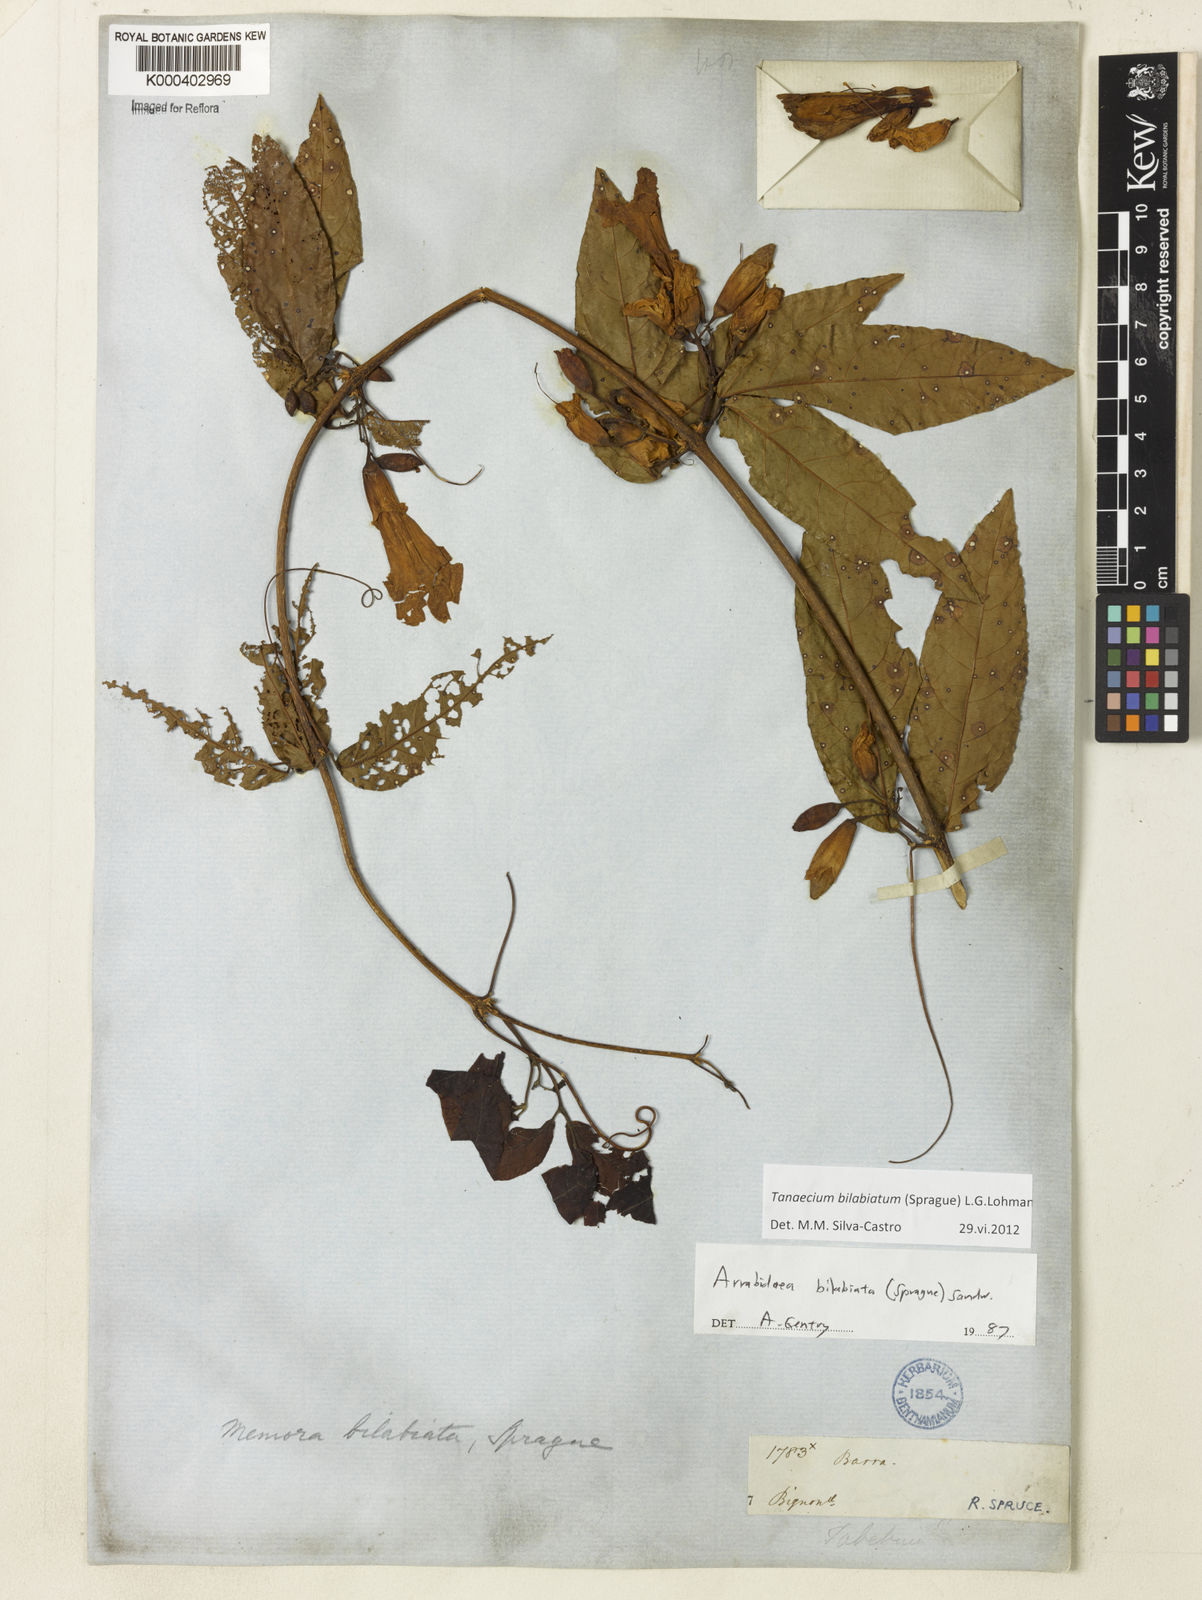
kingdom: Plantae
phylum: Tracheophyta
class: Magnoliopsida
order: Lamiales
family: Bignoniaceae
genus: Tanaecium
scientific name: Tanaecium bilabiatum
